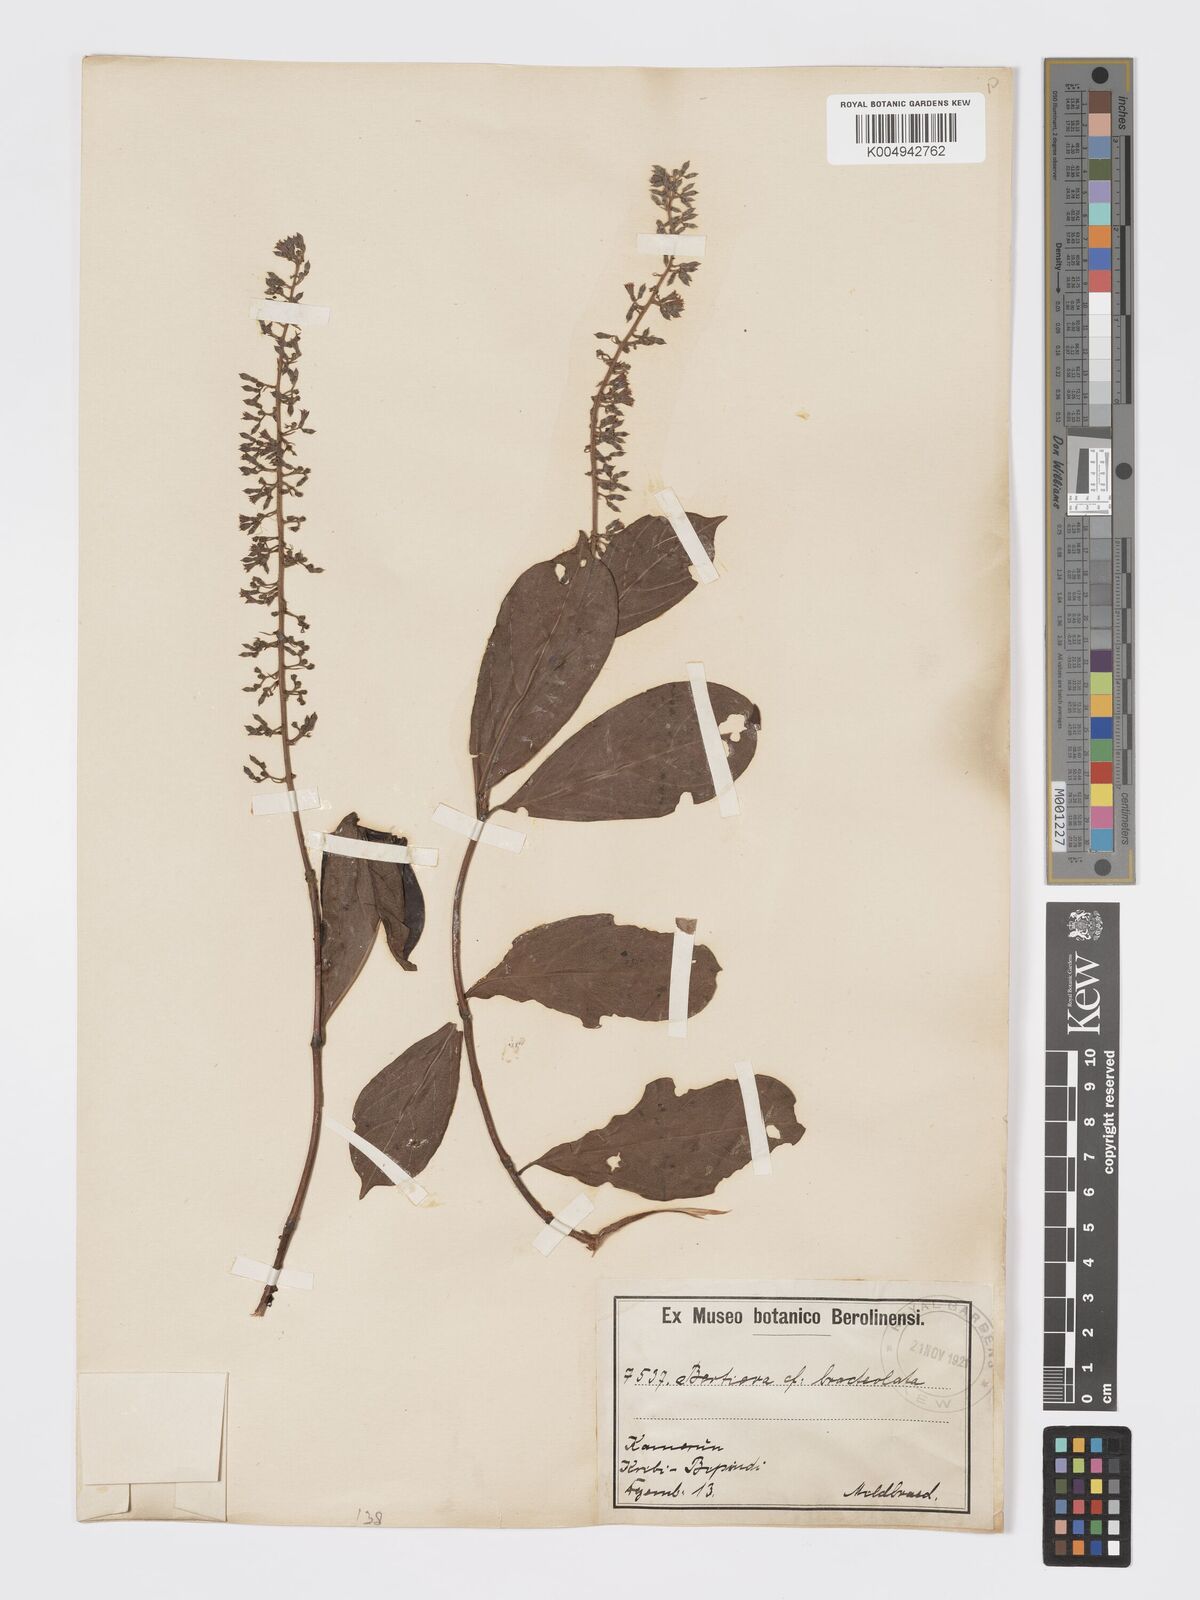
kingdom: Plantae
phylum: Tracheophyta
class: Magnoliopsida
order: Gentianales
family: Rubiaceae
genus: Bertiera
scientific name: Bertiera bracteolata
